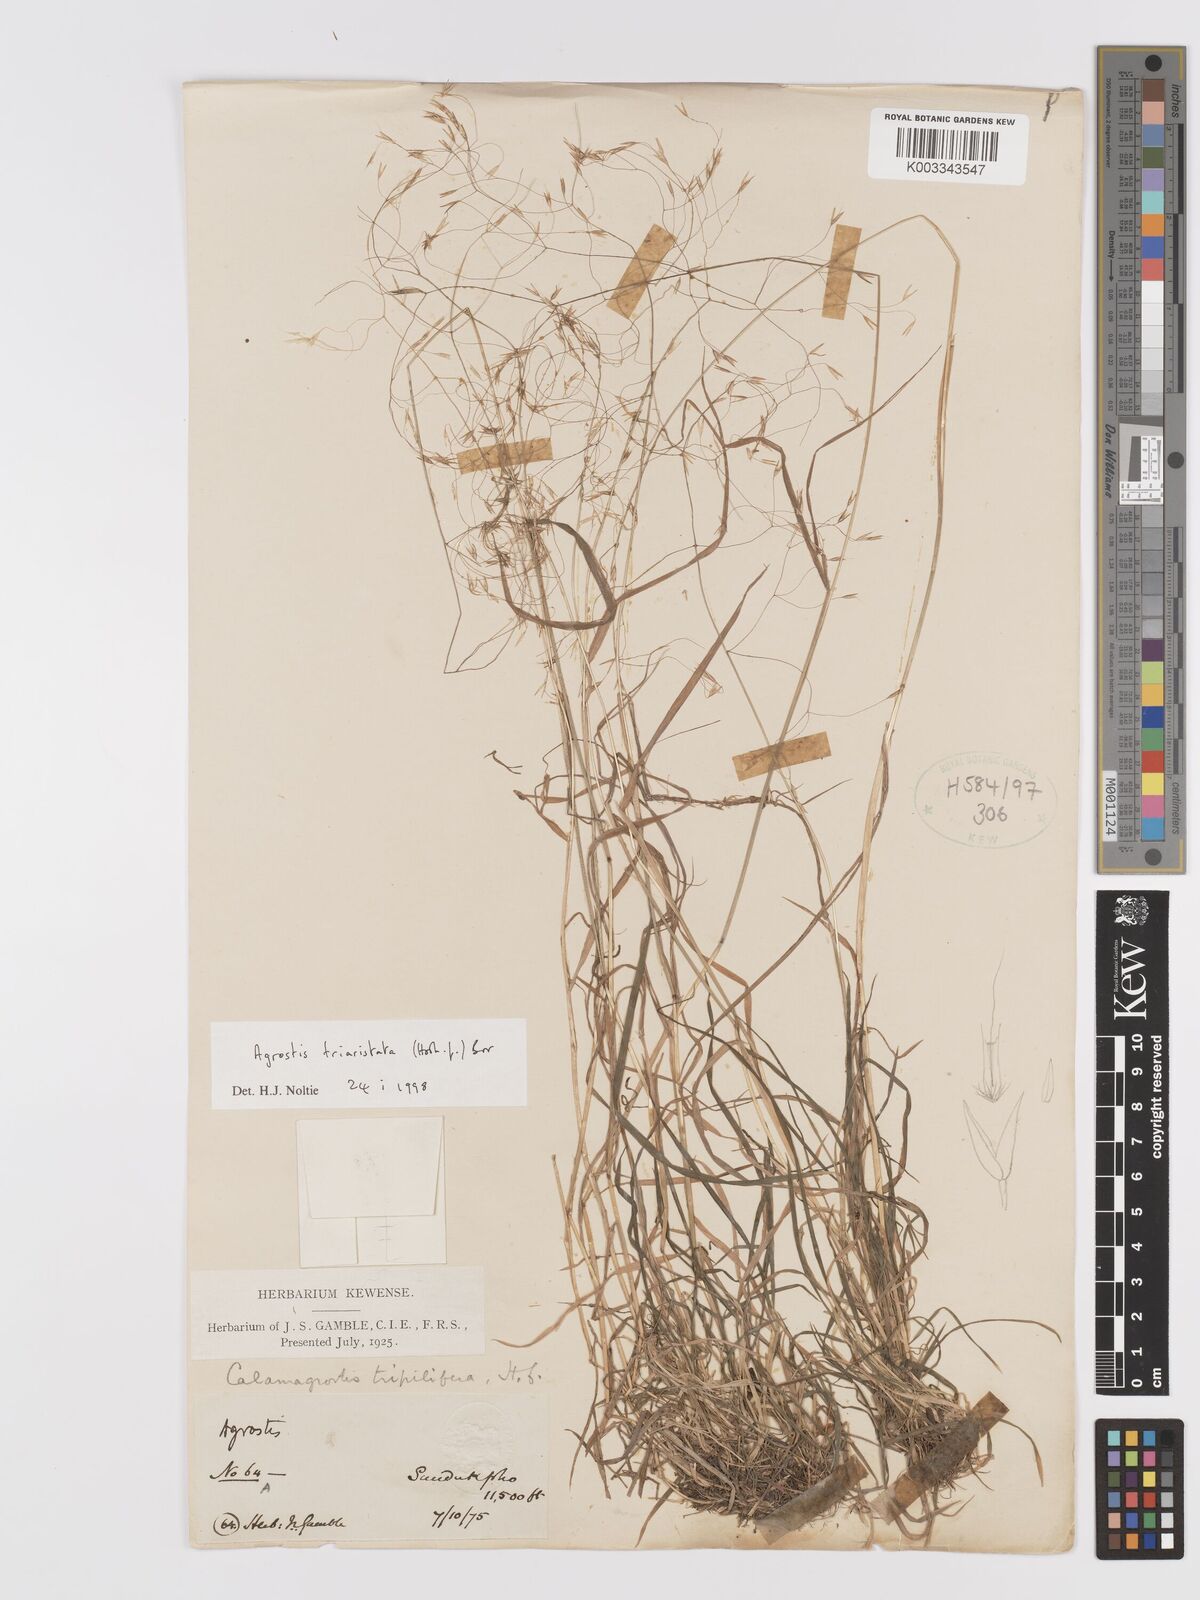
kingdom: Plantae
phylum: Tracheophyta
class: Liliopsida
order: Poales
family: Poaceae
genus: Agrostis
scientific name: Agrostis
